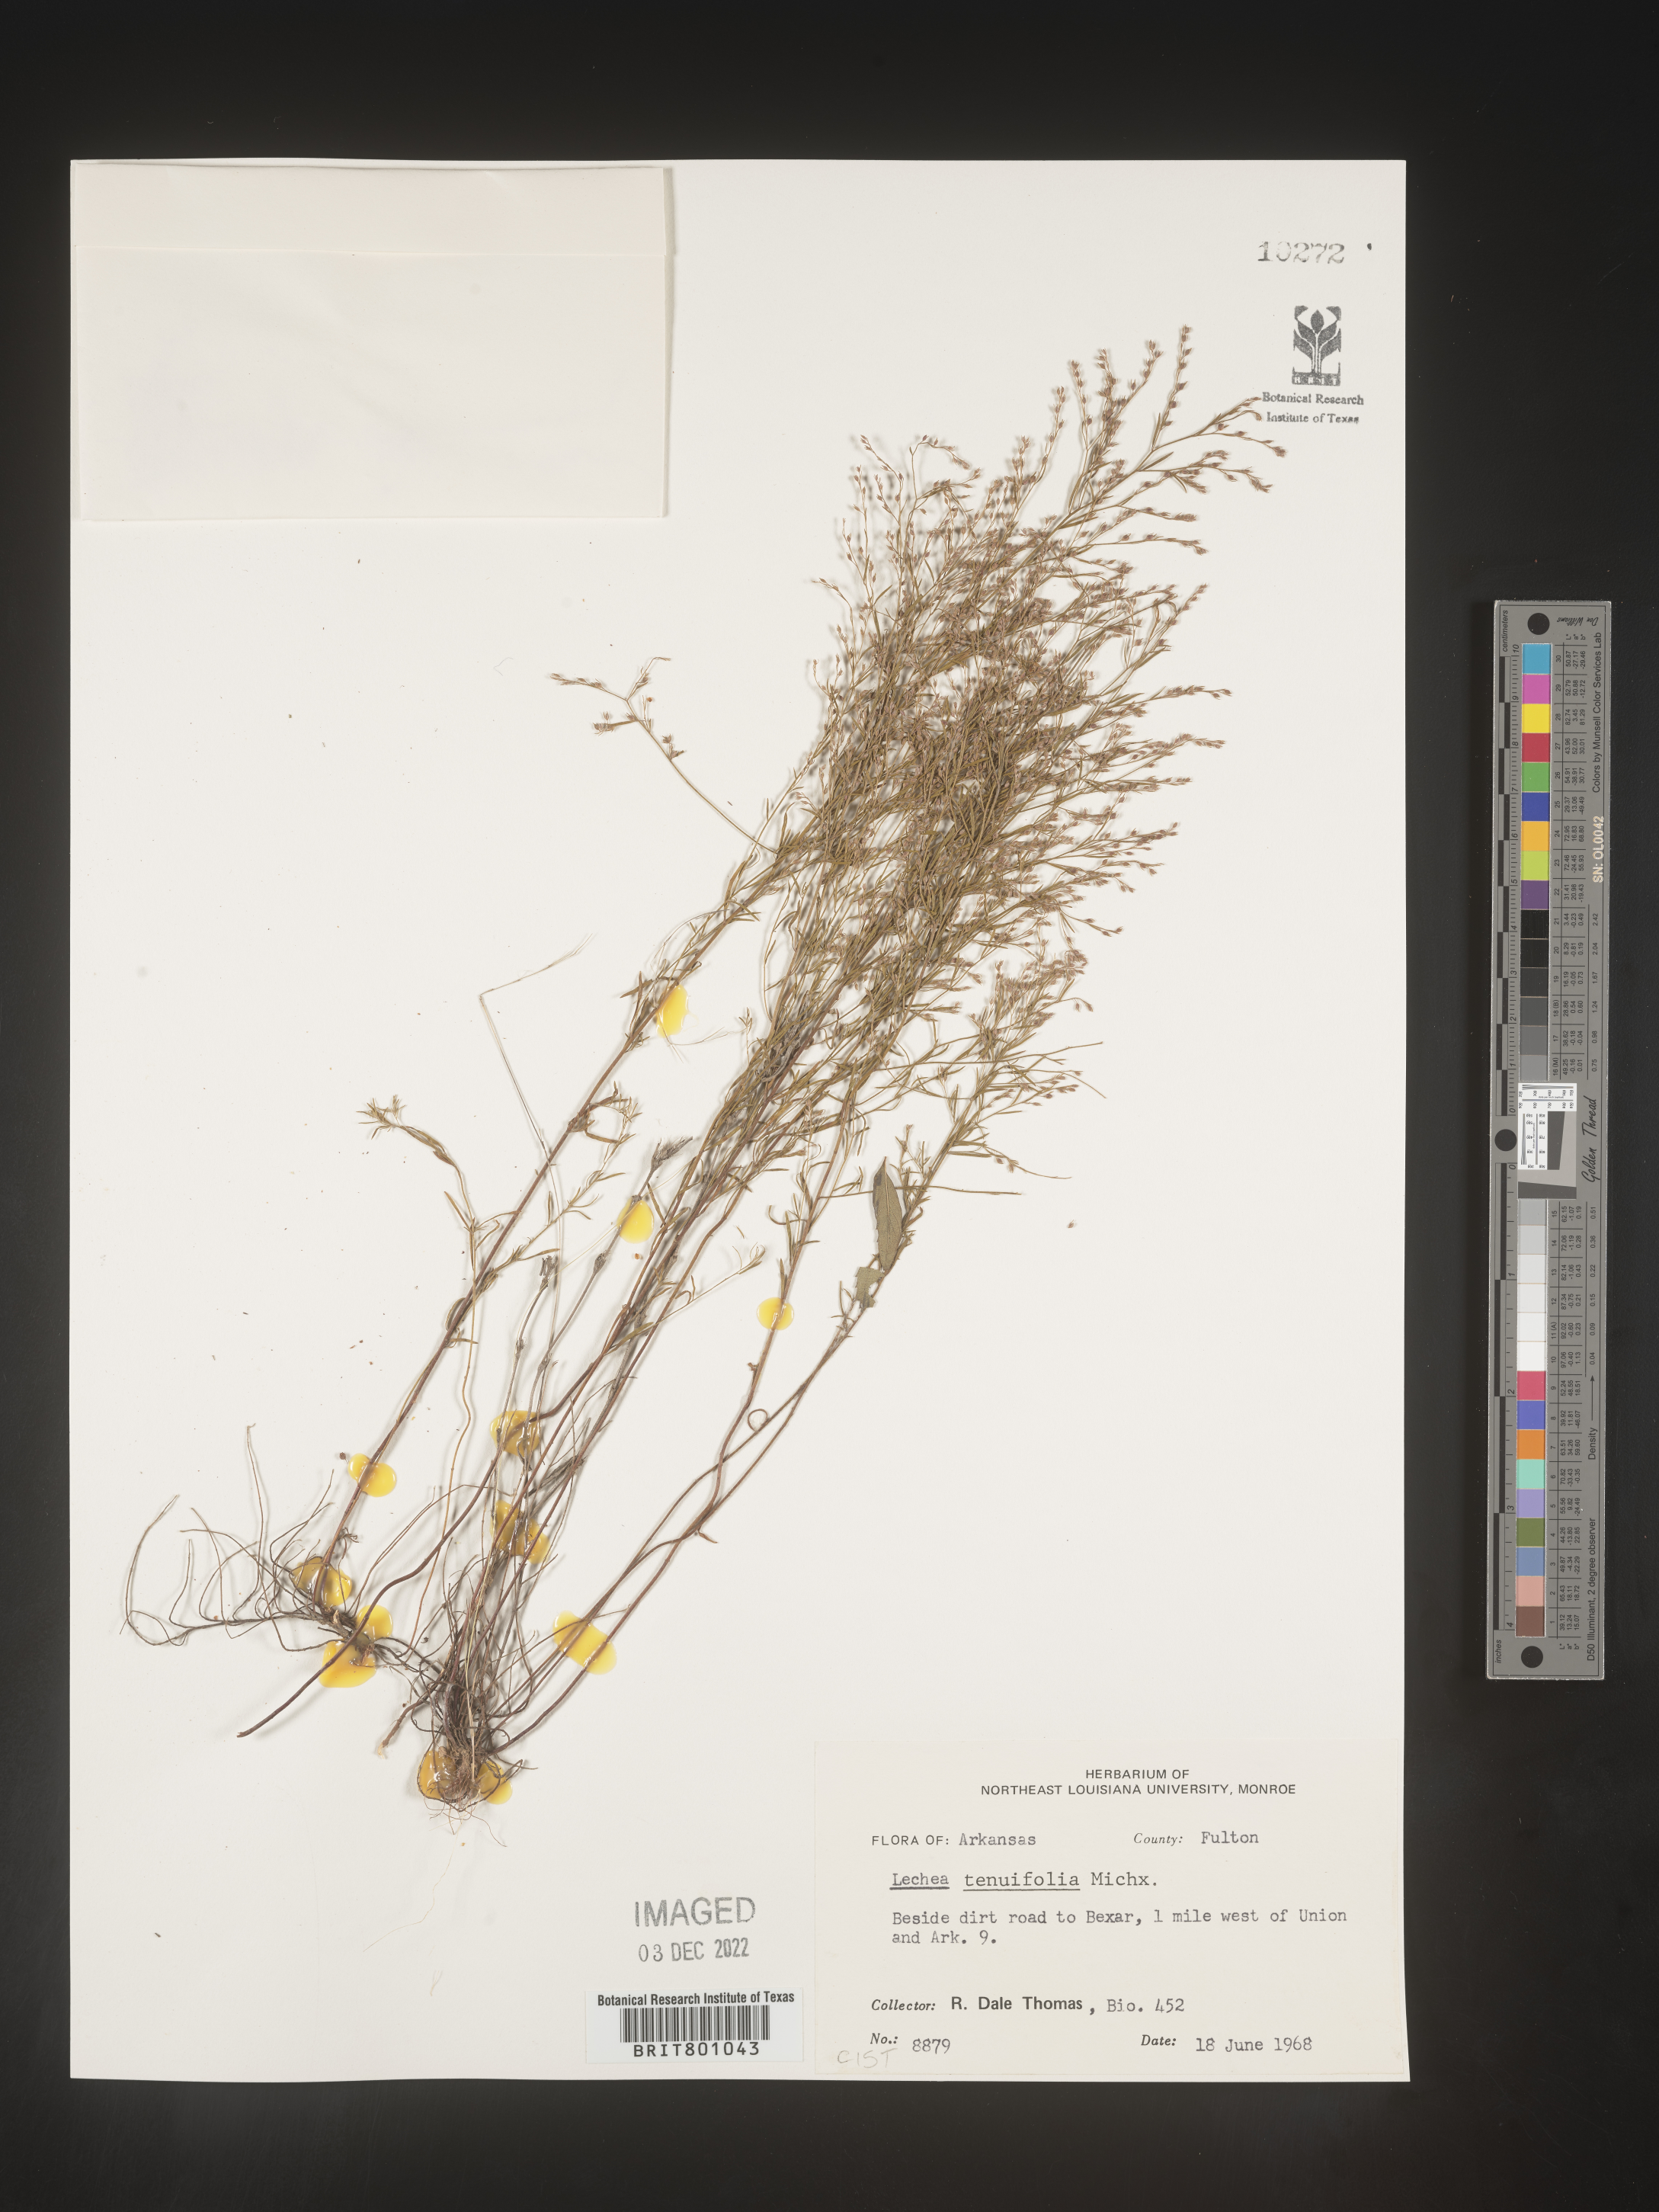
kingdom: Plantae
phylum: Tracheophyta
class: Magnoliopsida
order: Malvales
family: Cistaceae
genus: Lechea
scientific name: Lechea tenuifolia
